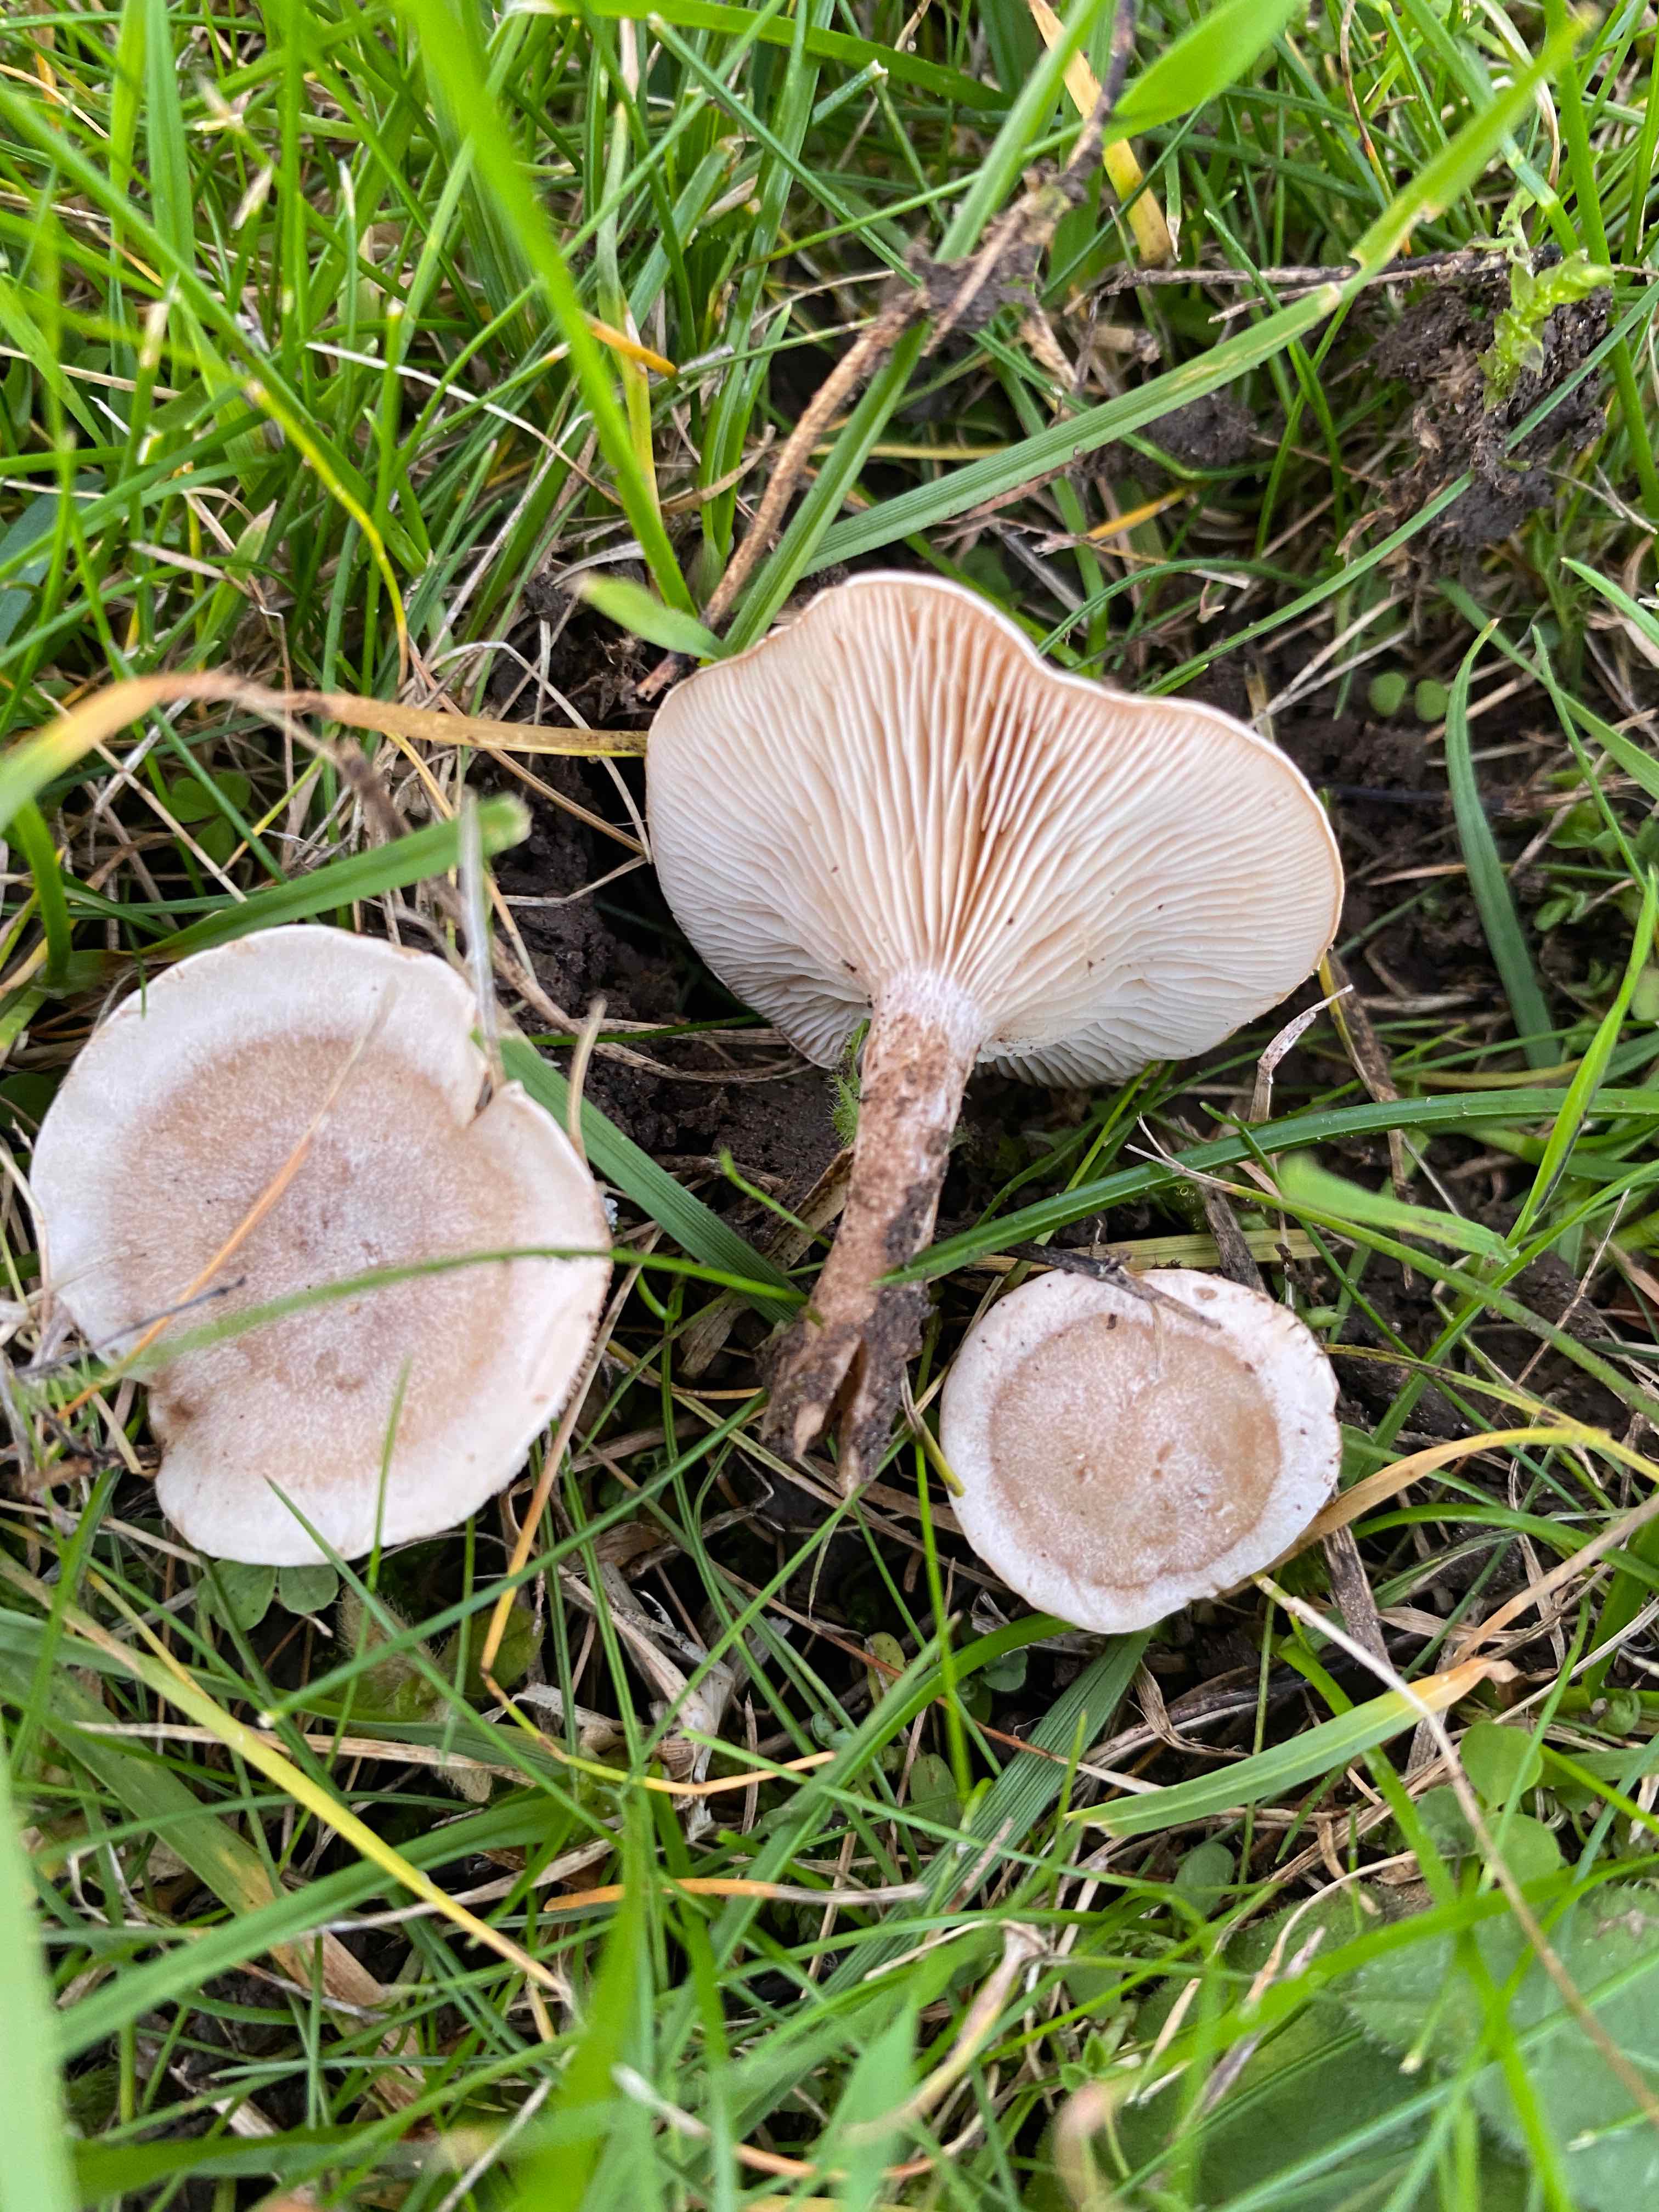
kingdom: Fungi
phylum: Basidiomycota
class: Agaricomycetes
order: Agaricales
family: Tricholomataceae
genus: Clitocybe
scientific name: Clitocybe
